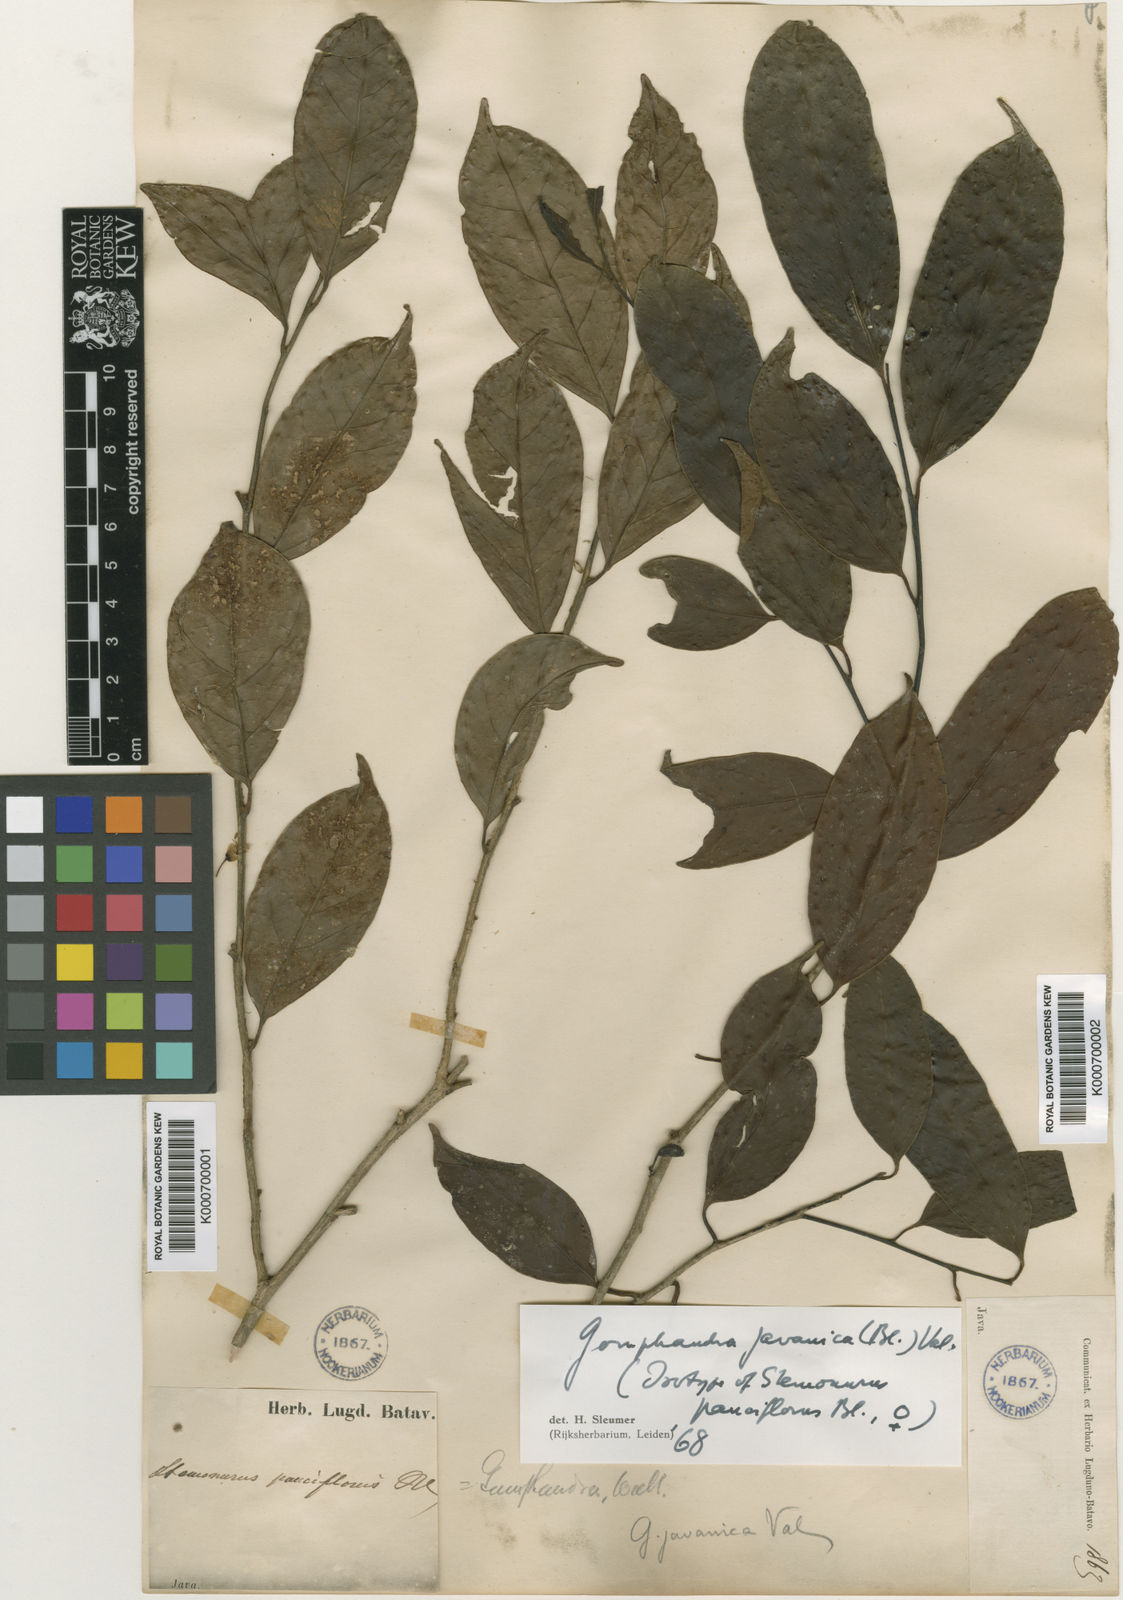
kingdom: Plantae
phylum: Tracheophyta
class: Magnoliopsida
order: Cardiopteridales
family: Stemonuraceae
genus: Gomphandra
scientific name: Gomphandra javanica
